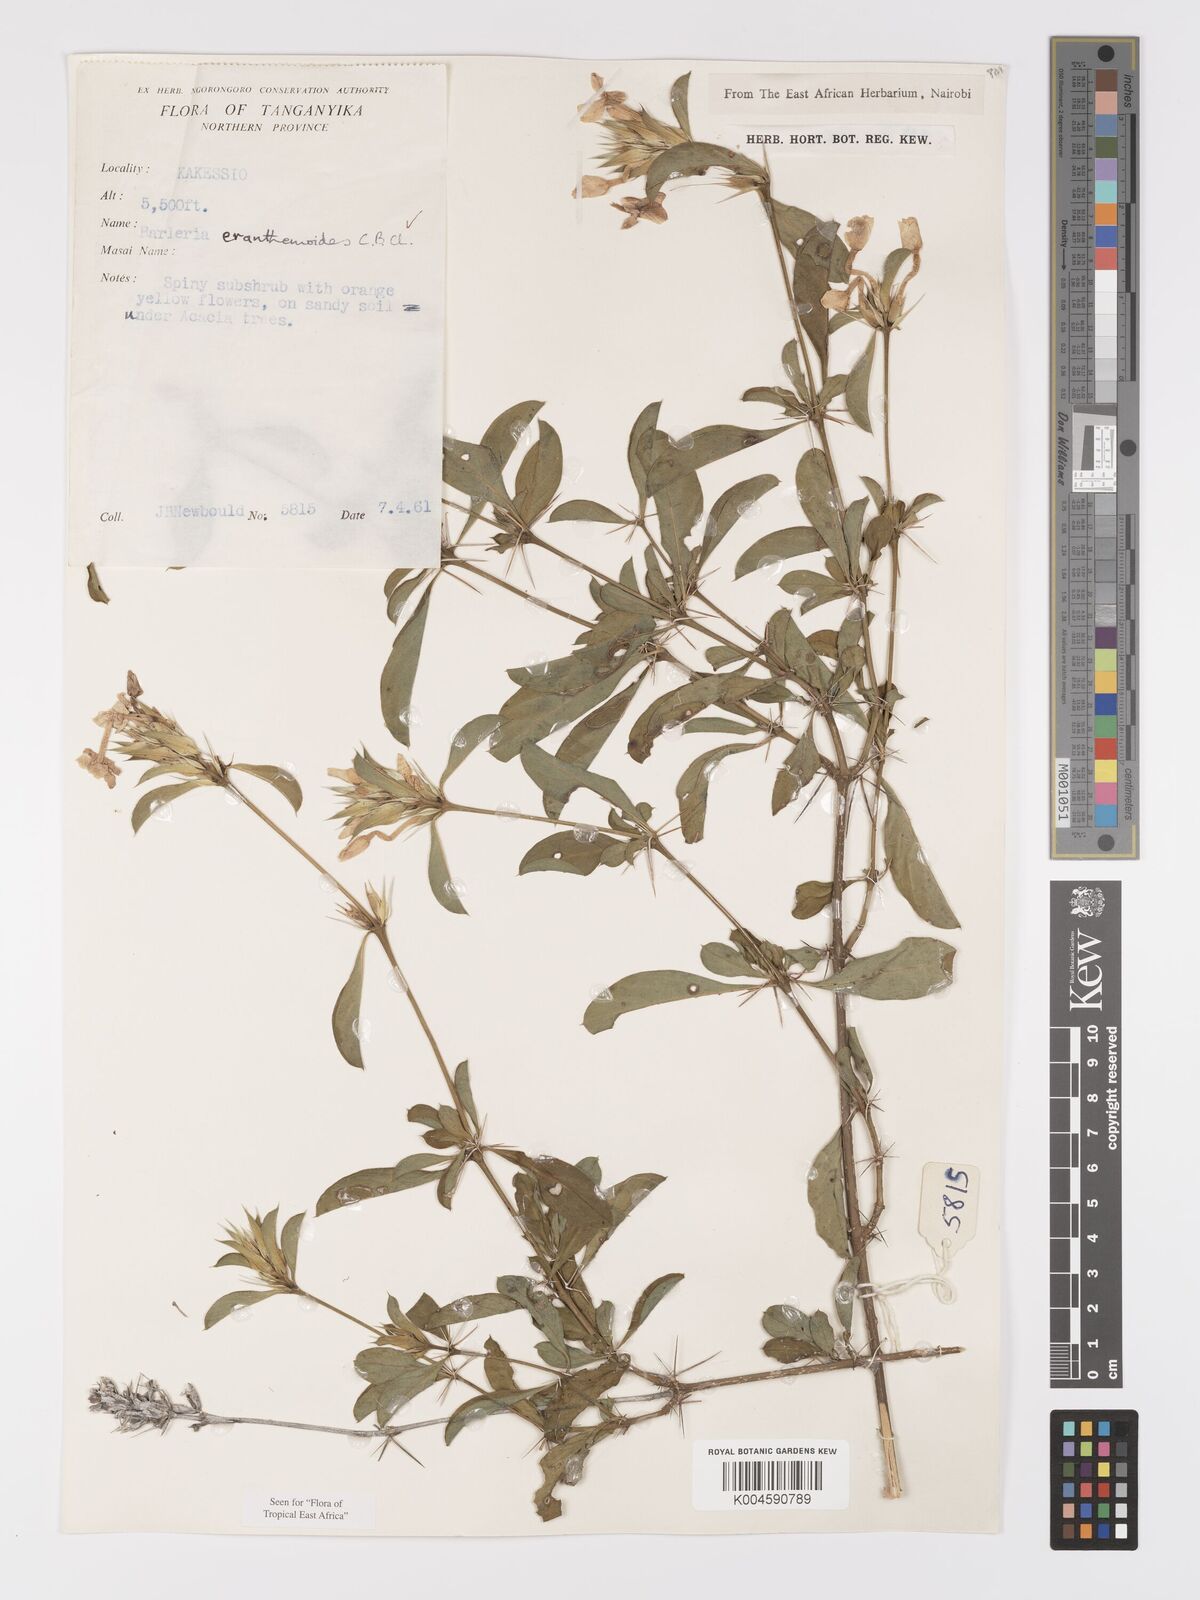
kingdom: Plantae
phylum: Tracheophyta
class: Magnoliopsida
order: Lamiales
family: Acanthaceae
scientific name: Acanthaceae
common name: Acanthaceae
